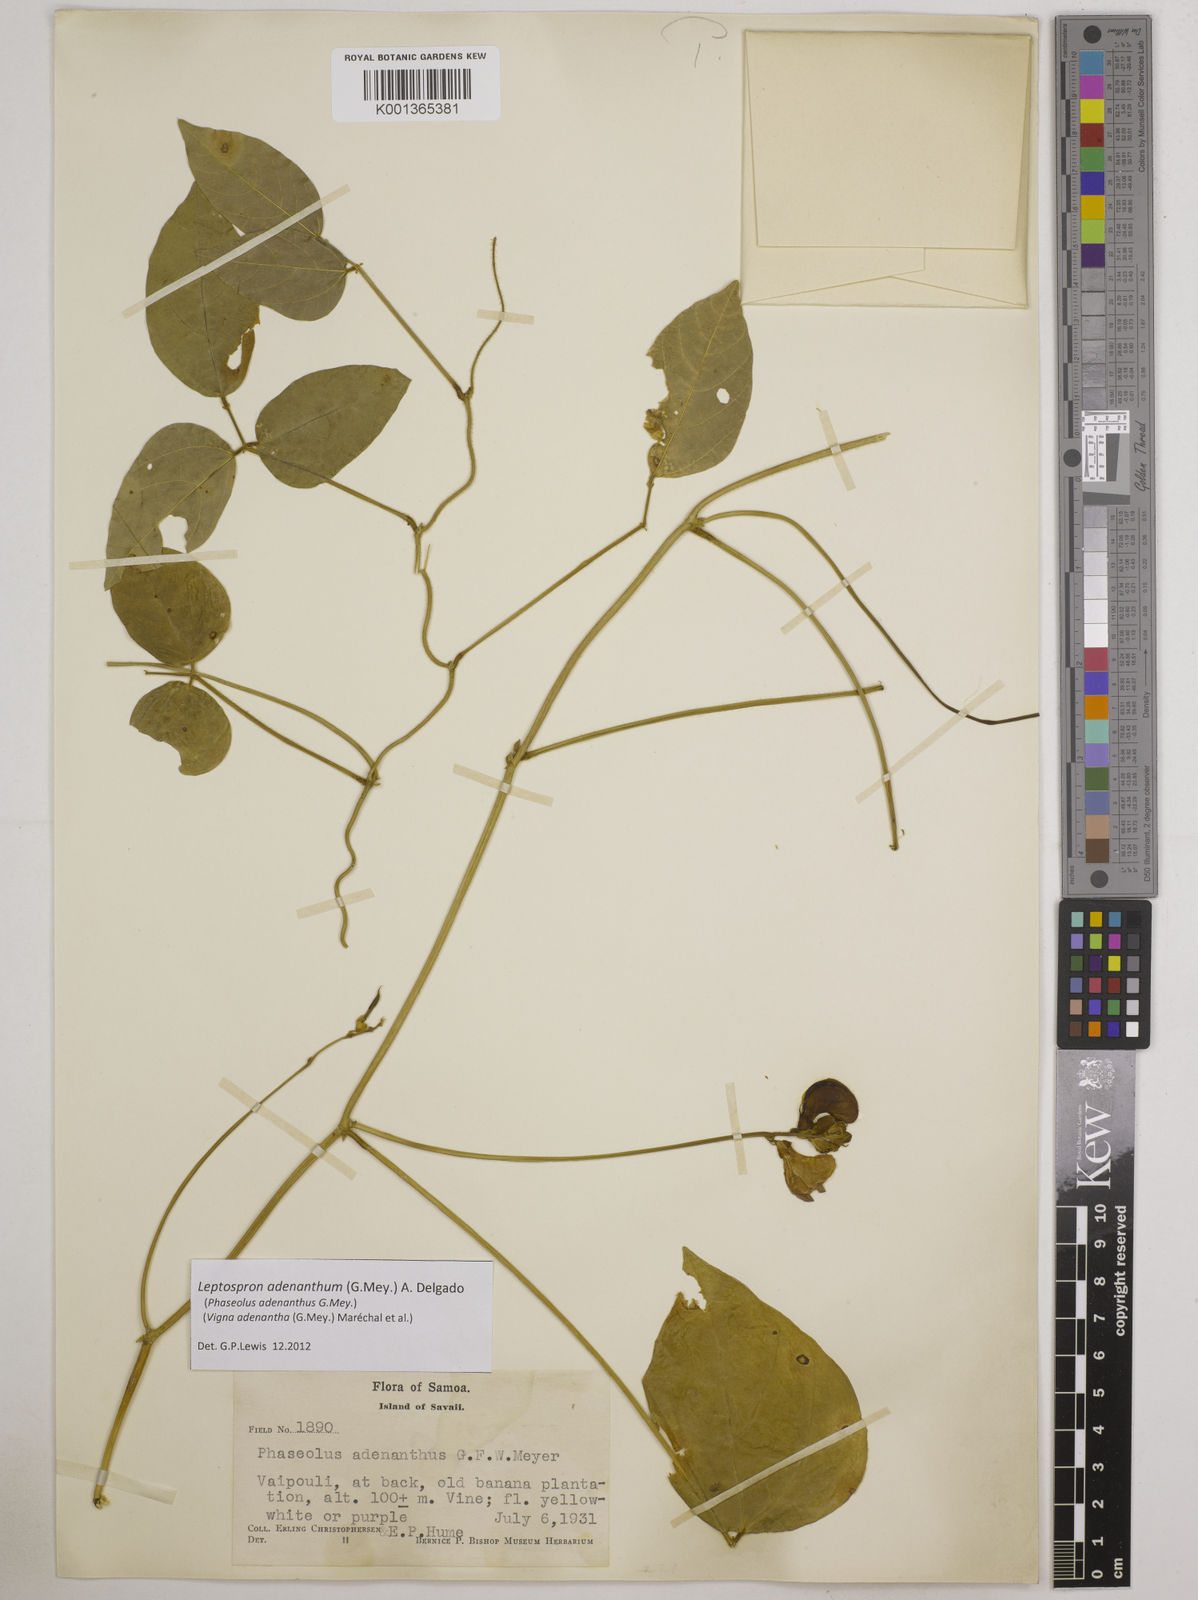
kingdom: Plantae
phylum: Tracheophyta
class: Magnoliopsida
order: Fabales
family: Fabaceae
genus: Leptospron
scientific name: Leptospron adenanthum
